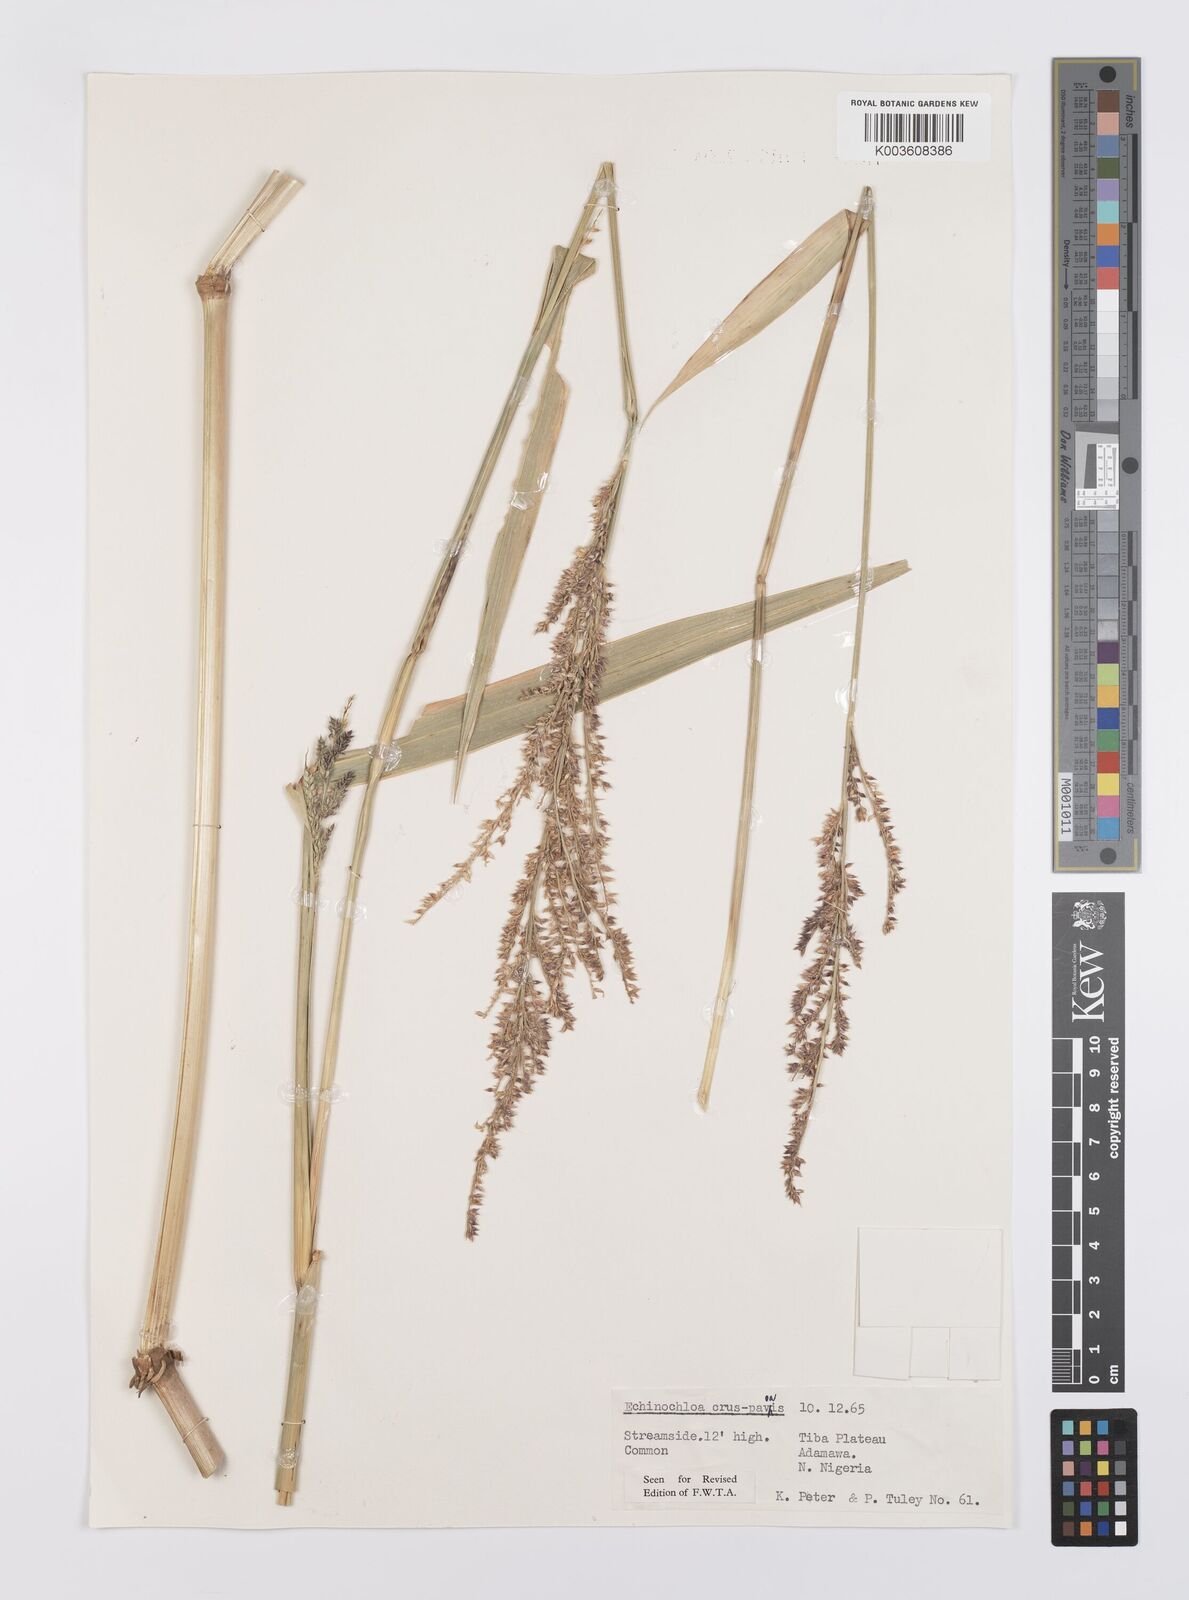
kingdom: Plantae
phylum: Tracheophyta
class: Liliopsida
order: Poales
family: Poaceae
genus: Echinochloa
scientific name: Echinochloa crus-pavonis
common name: Gulf cockspur grass
